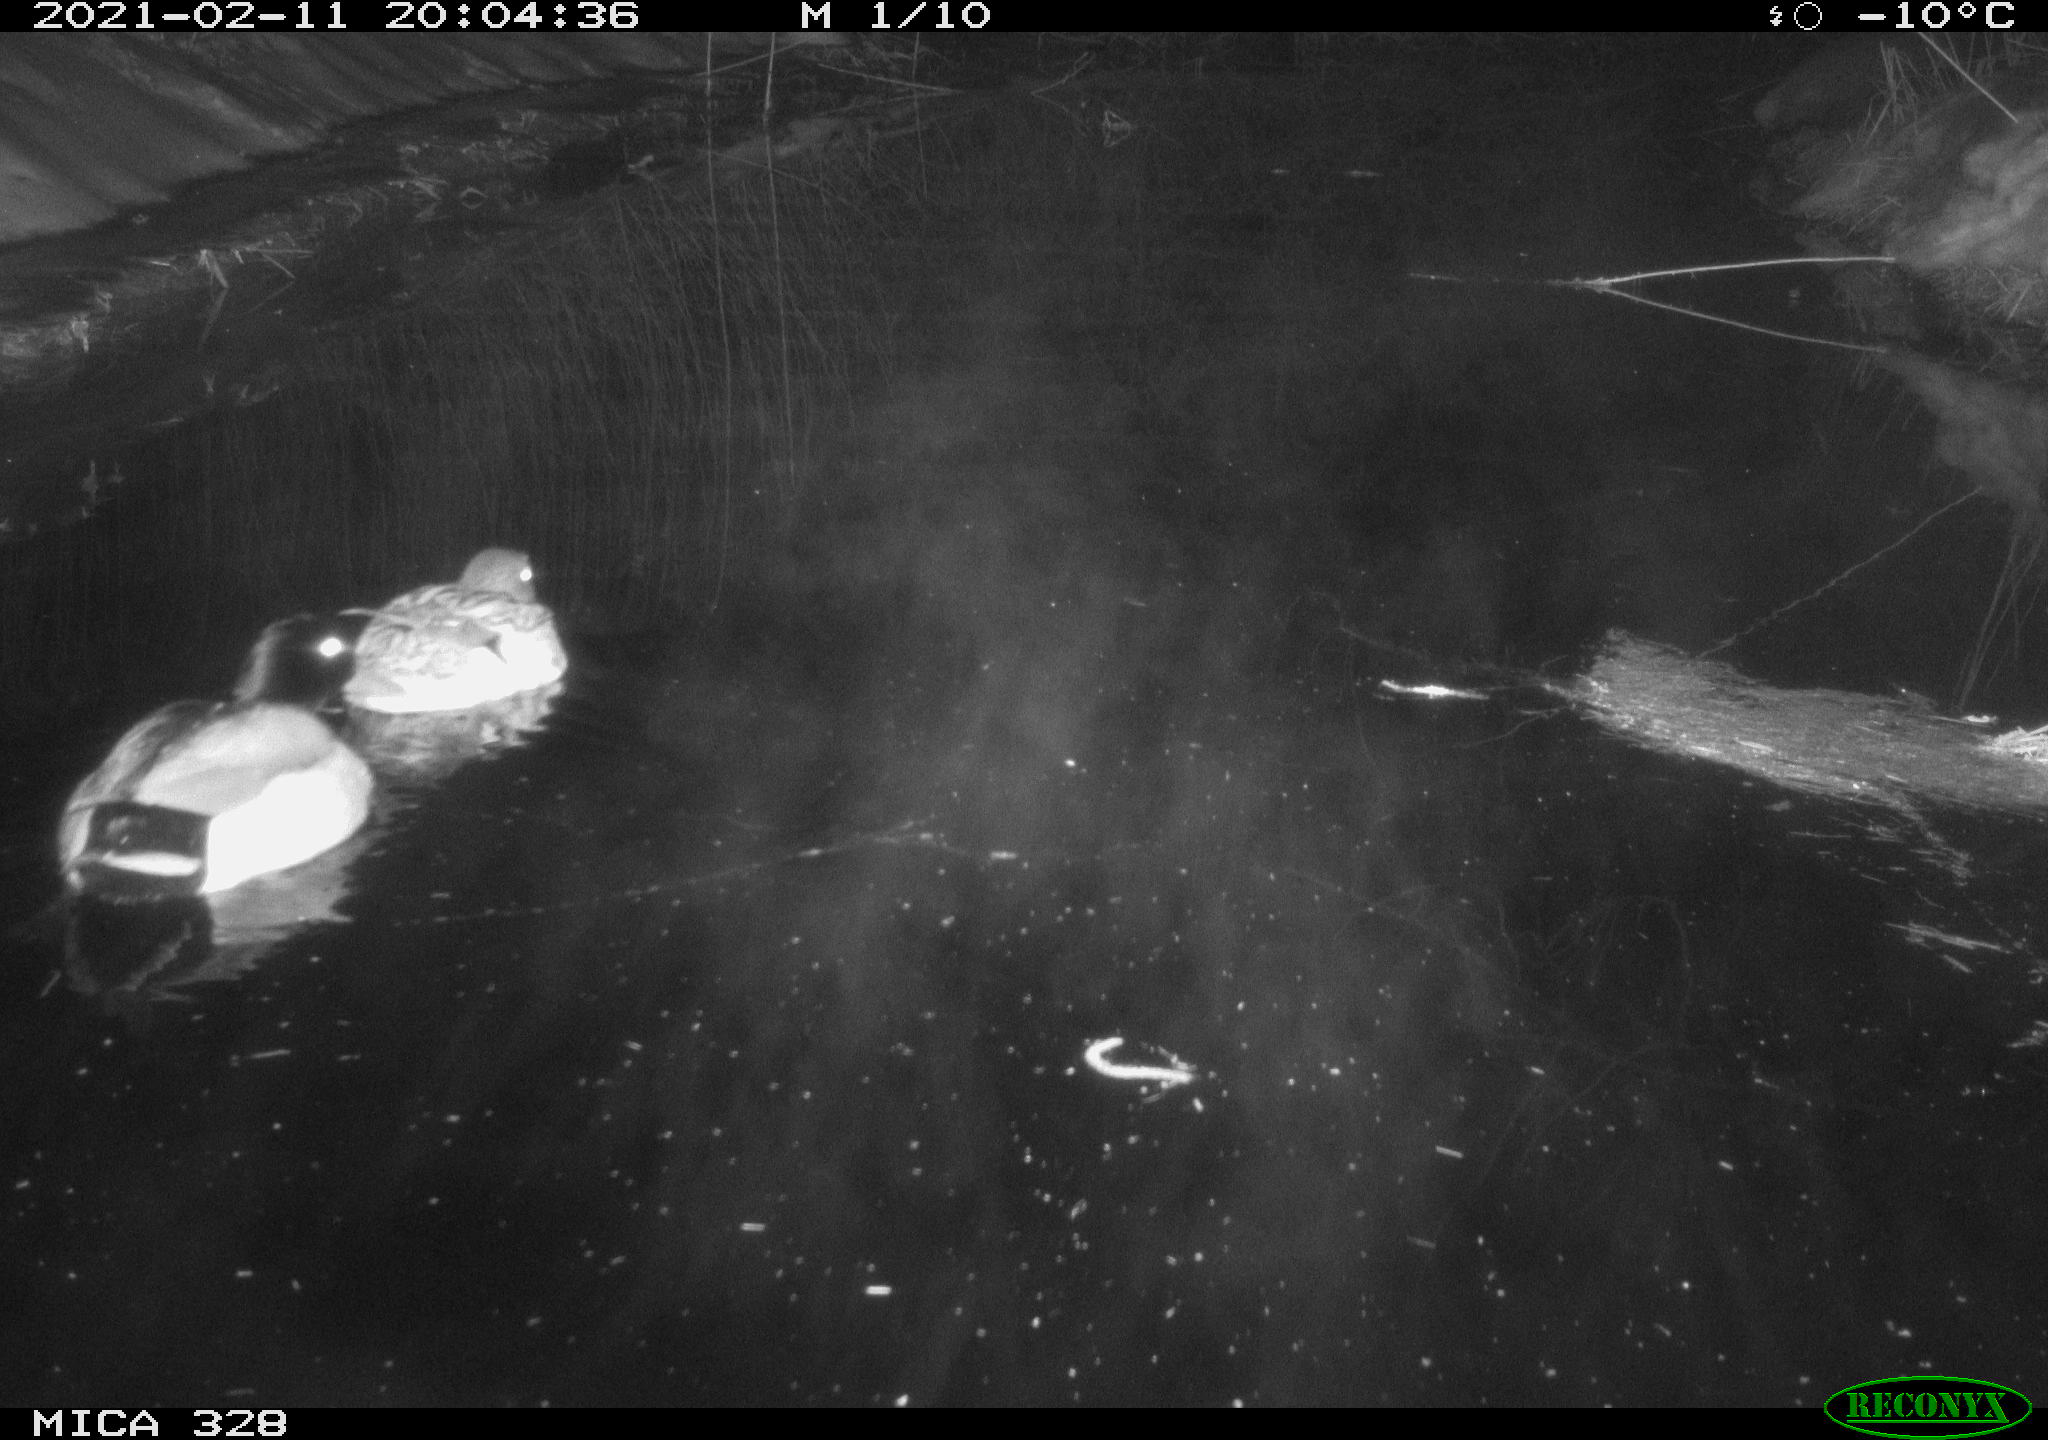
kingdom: Animalia
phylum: Chordata
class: Aves
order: Anseriformes
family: Anatidae
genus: Anas
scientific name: Anas platyrhynchos
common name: Mallard
